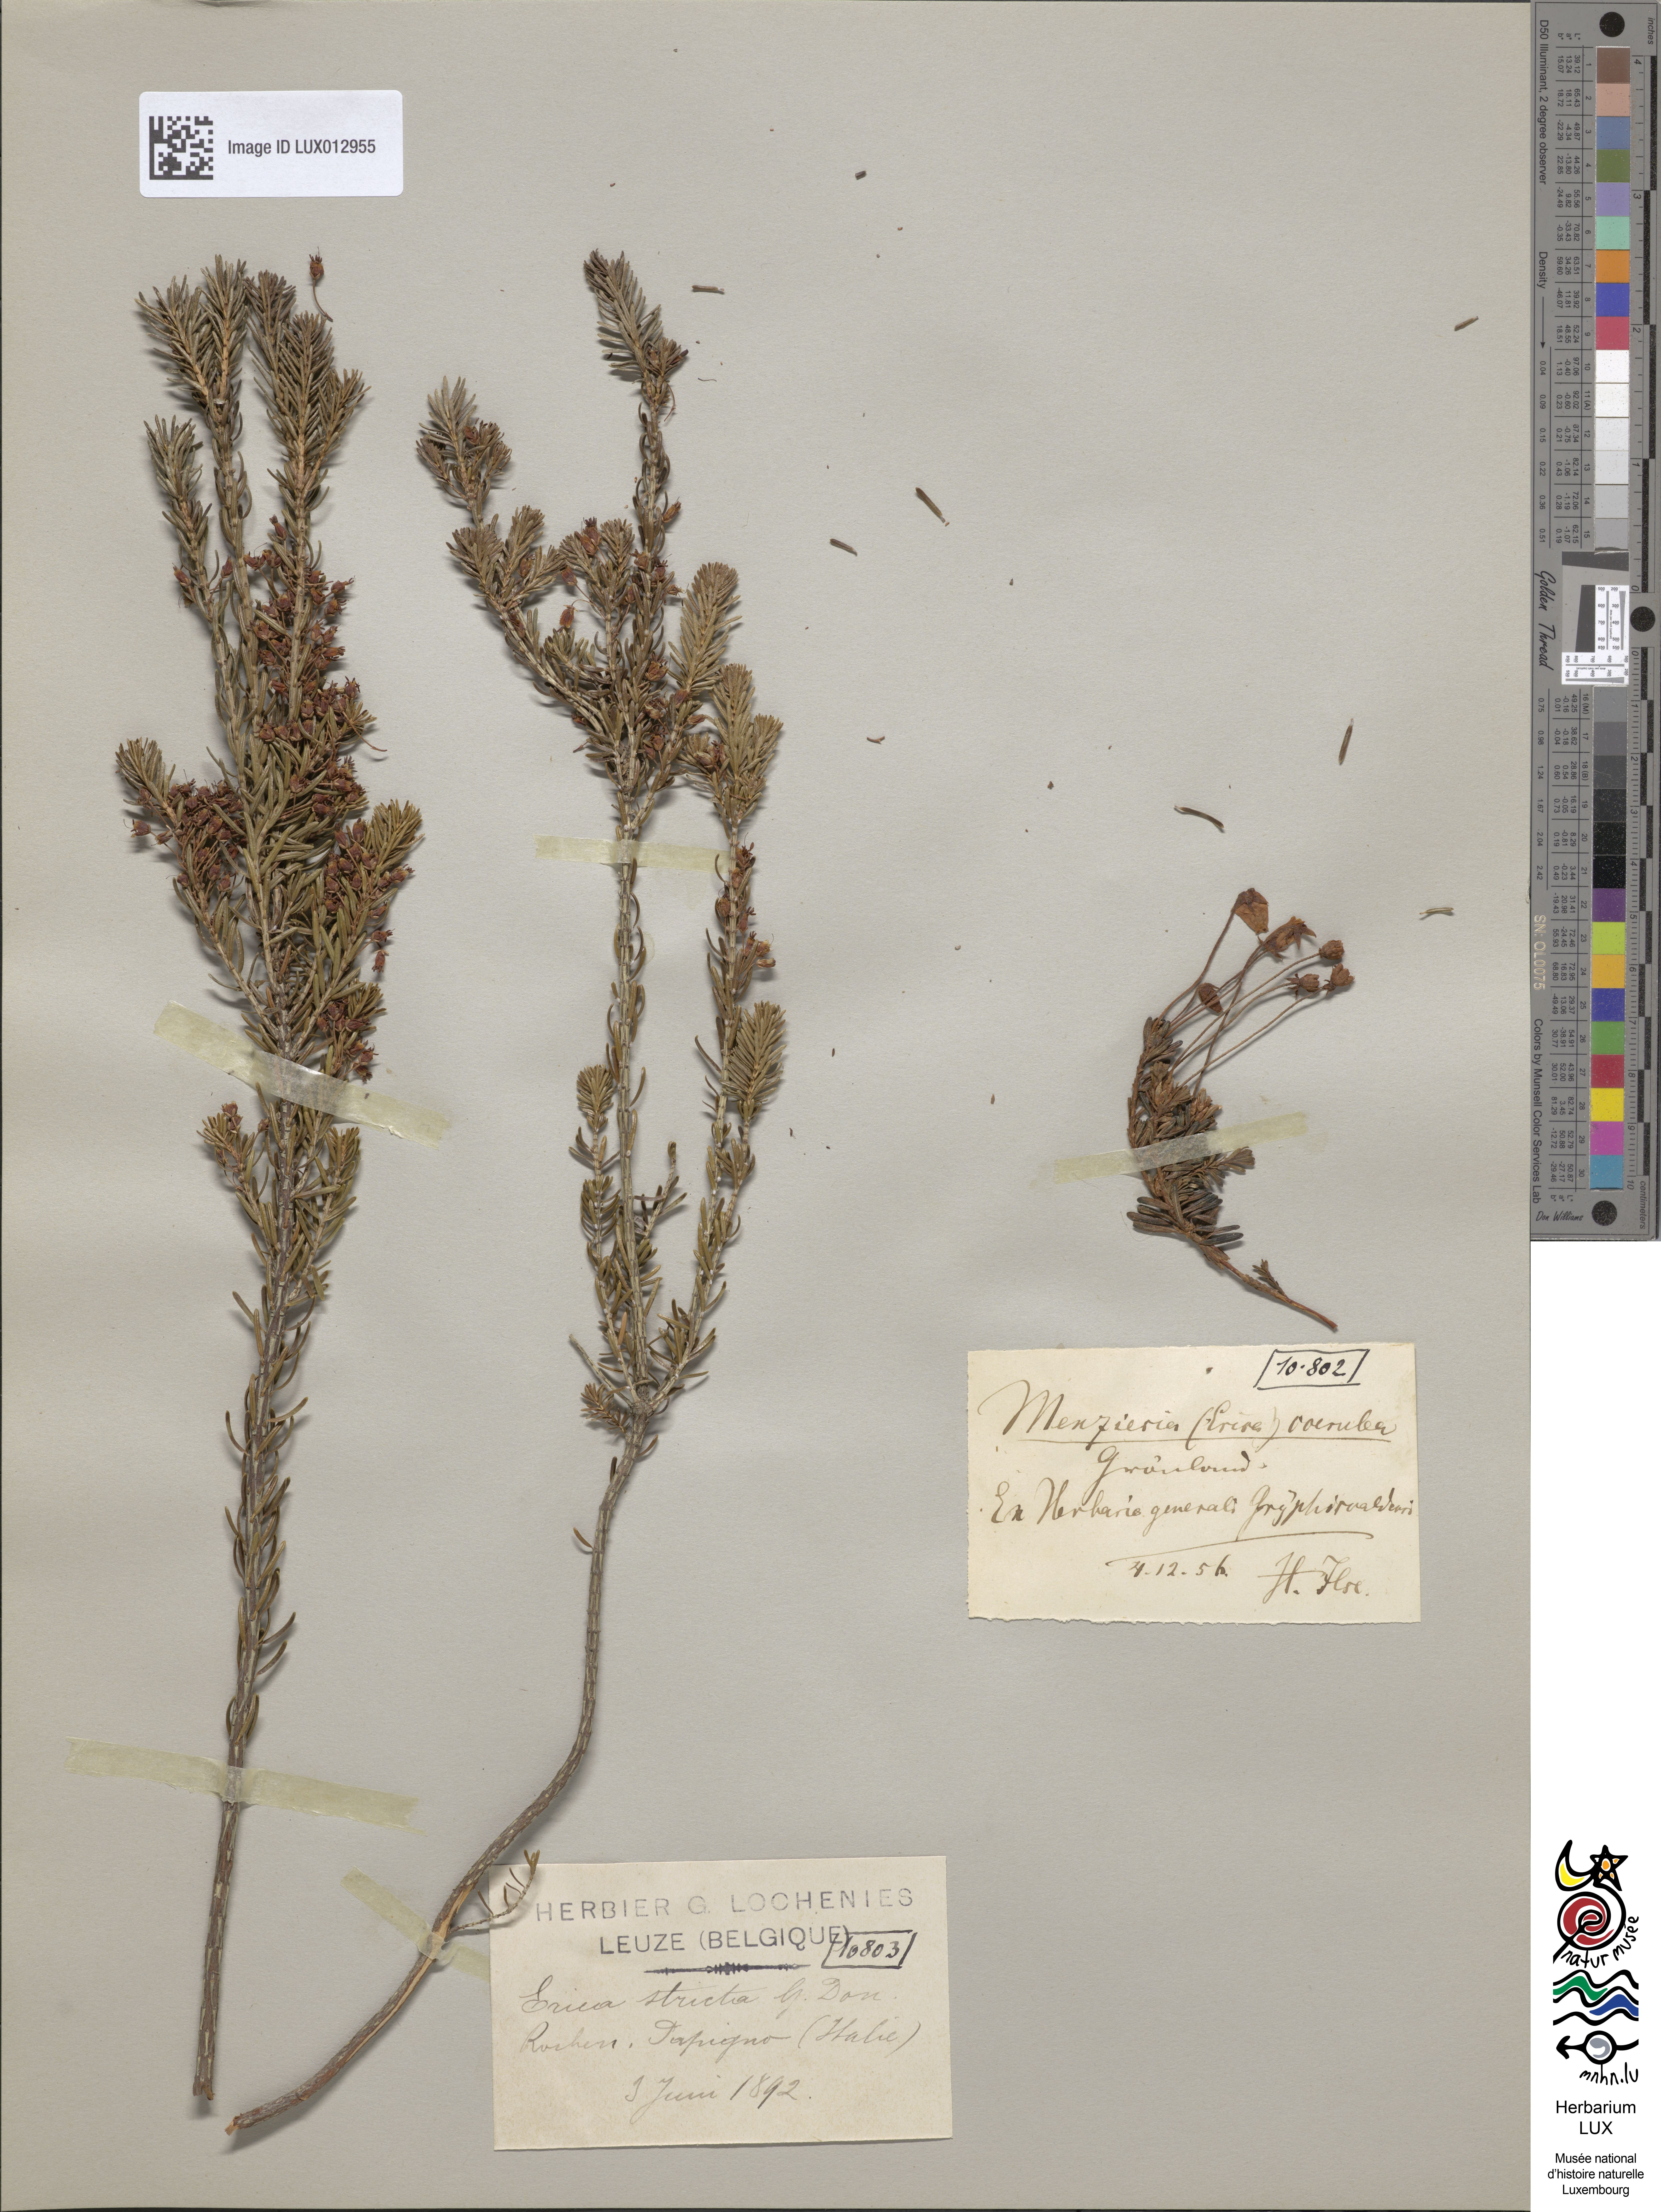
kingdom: Plantae
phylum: Tracheophyta
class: Magnoliopsida
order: Ericales
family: Ericaceae
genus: Phyllodoce
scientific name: Phyllodoce caerulea
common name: Blue heath
